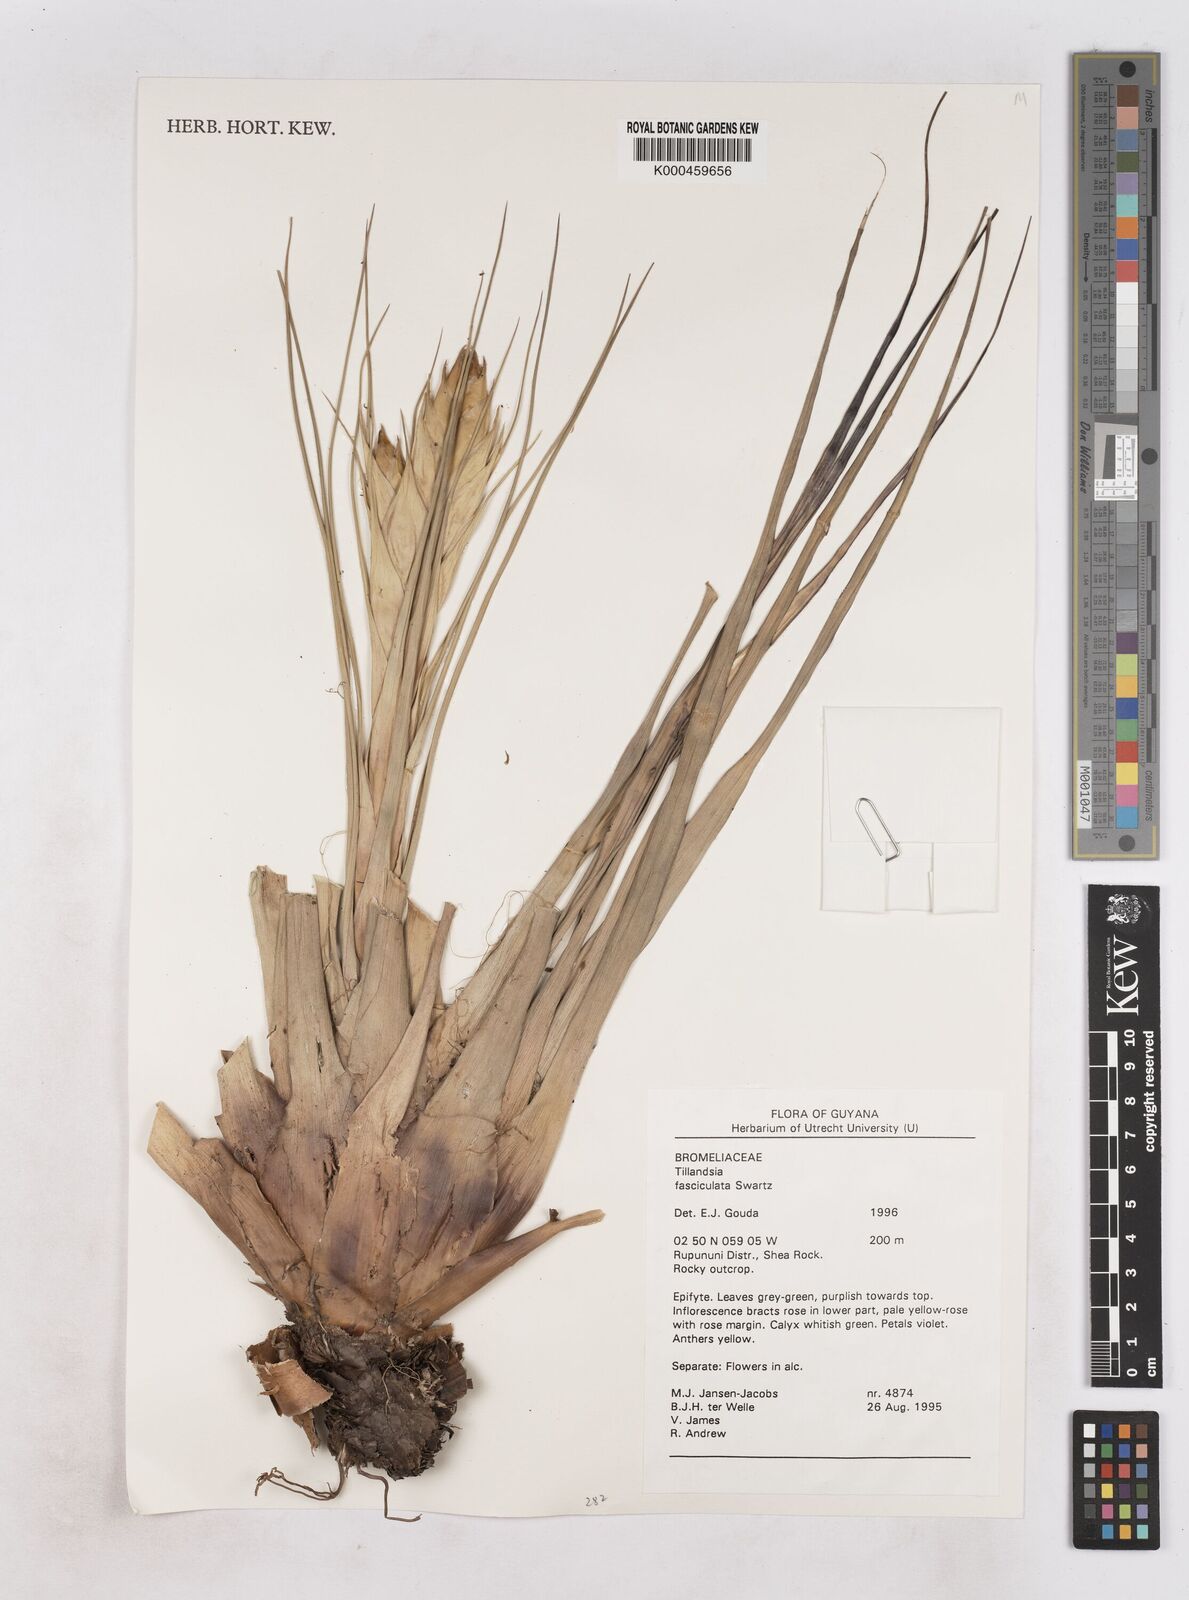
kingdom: Plantae
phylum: Tracheophyta
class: Liliopsida
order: Poales
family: Bromeliaceae
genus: Tillandsia
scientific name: Tillandsia
